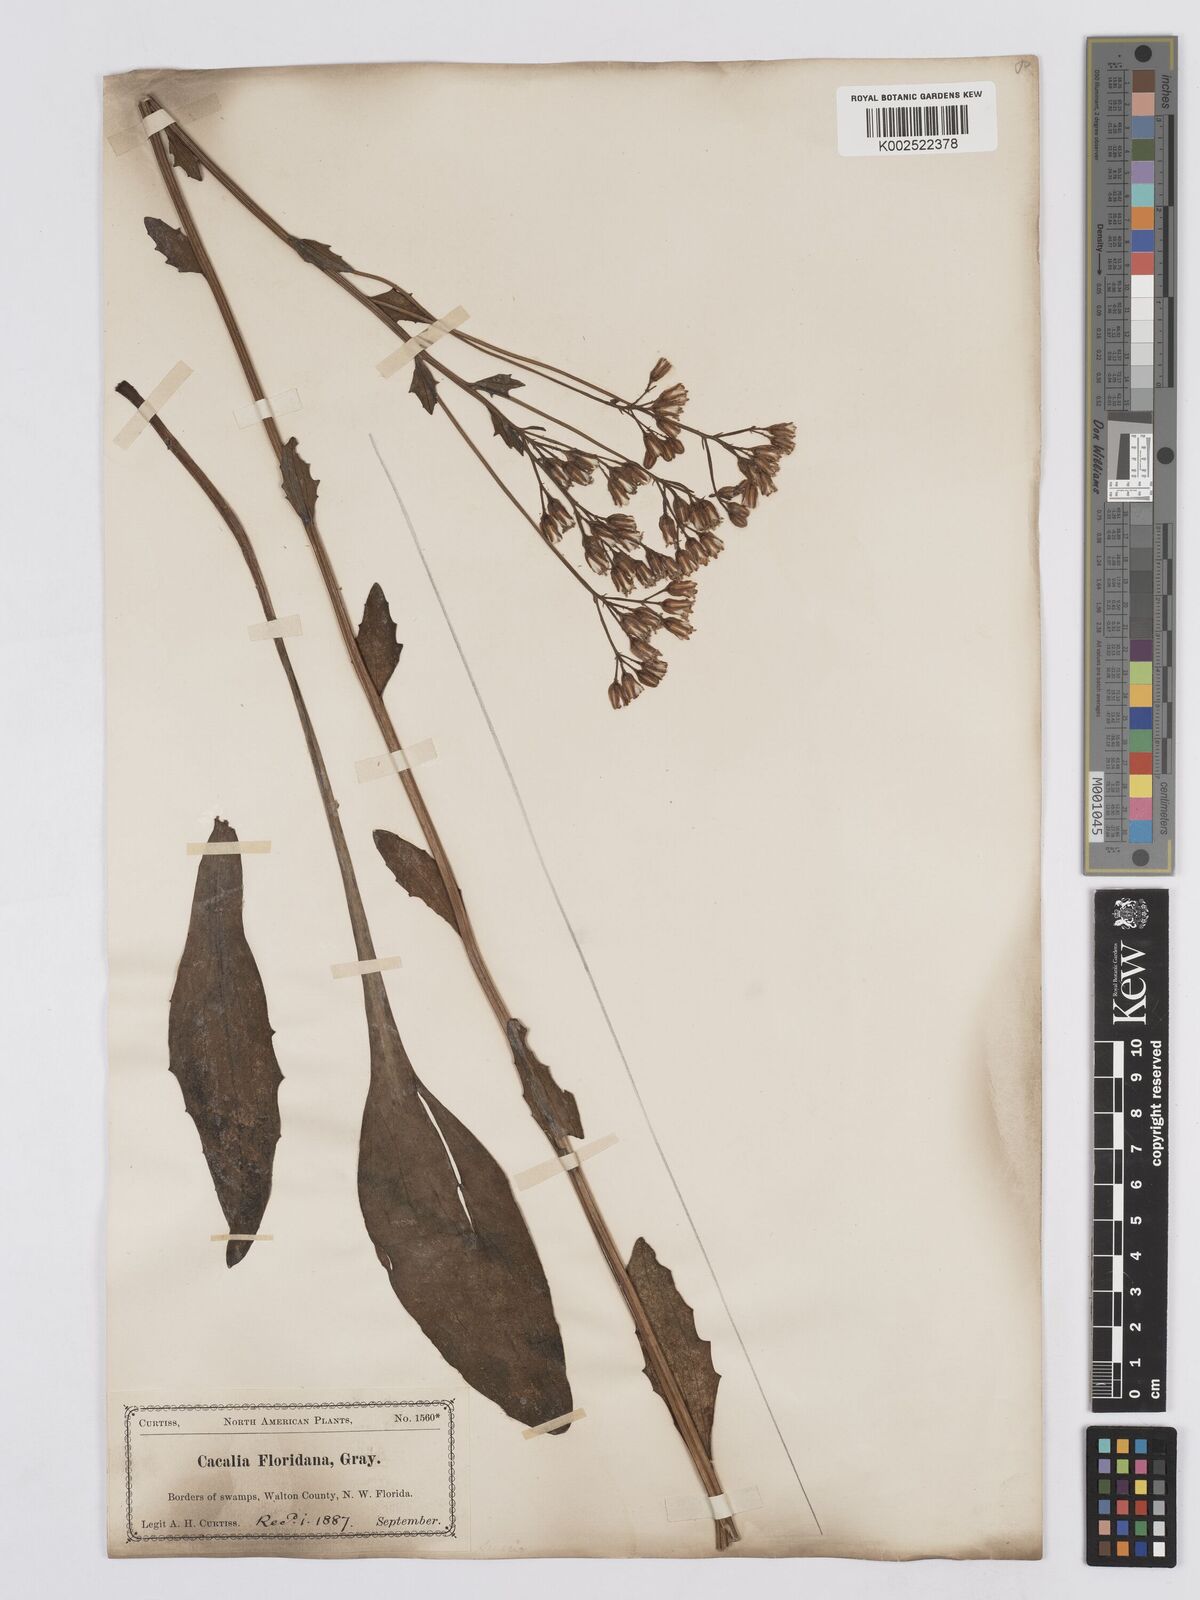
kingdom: Plantae
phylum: Tracheophyta
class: Magnoliopsida
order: Asterales
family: Asteraceae
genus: Arnoglossum
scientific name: Arnoglossum floridanum
